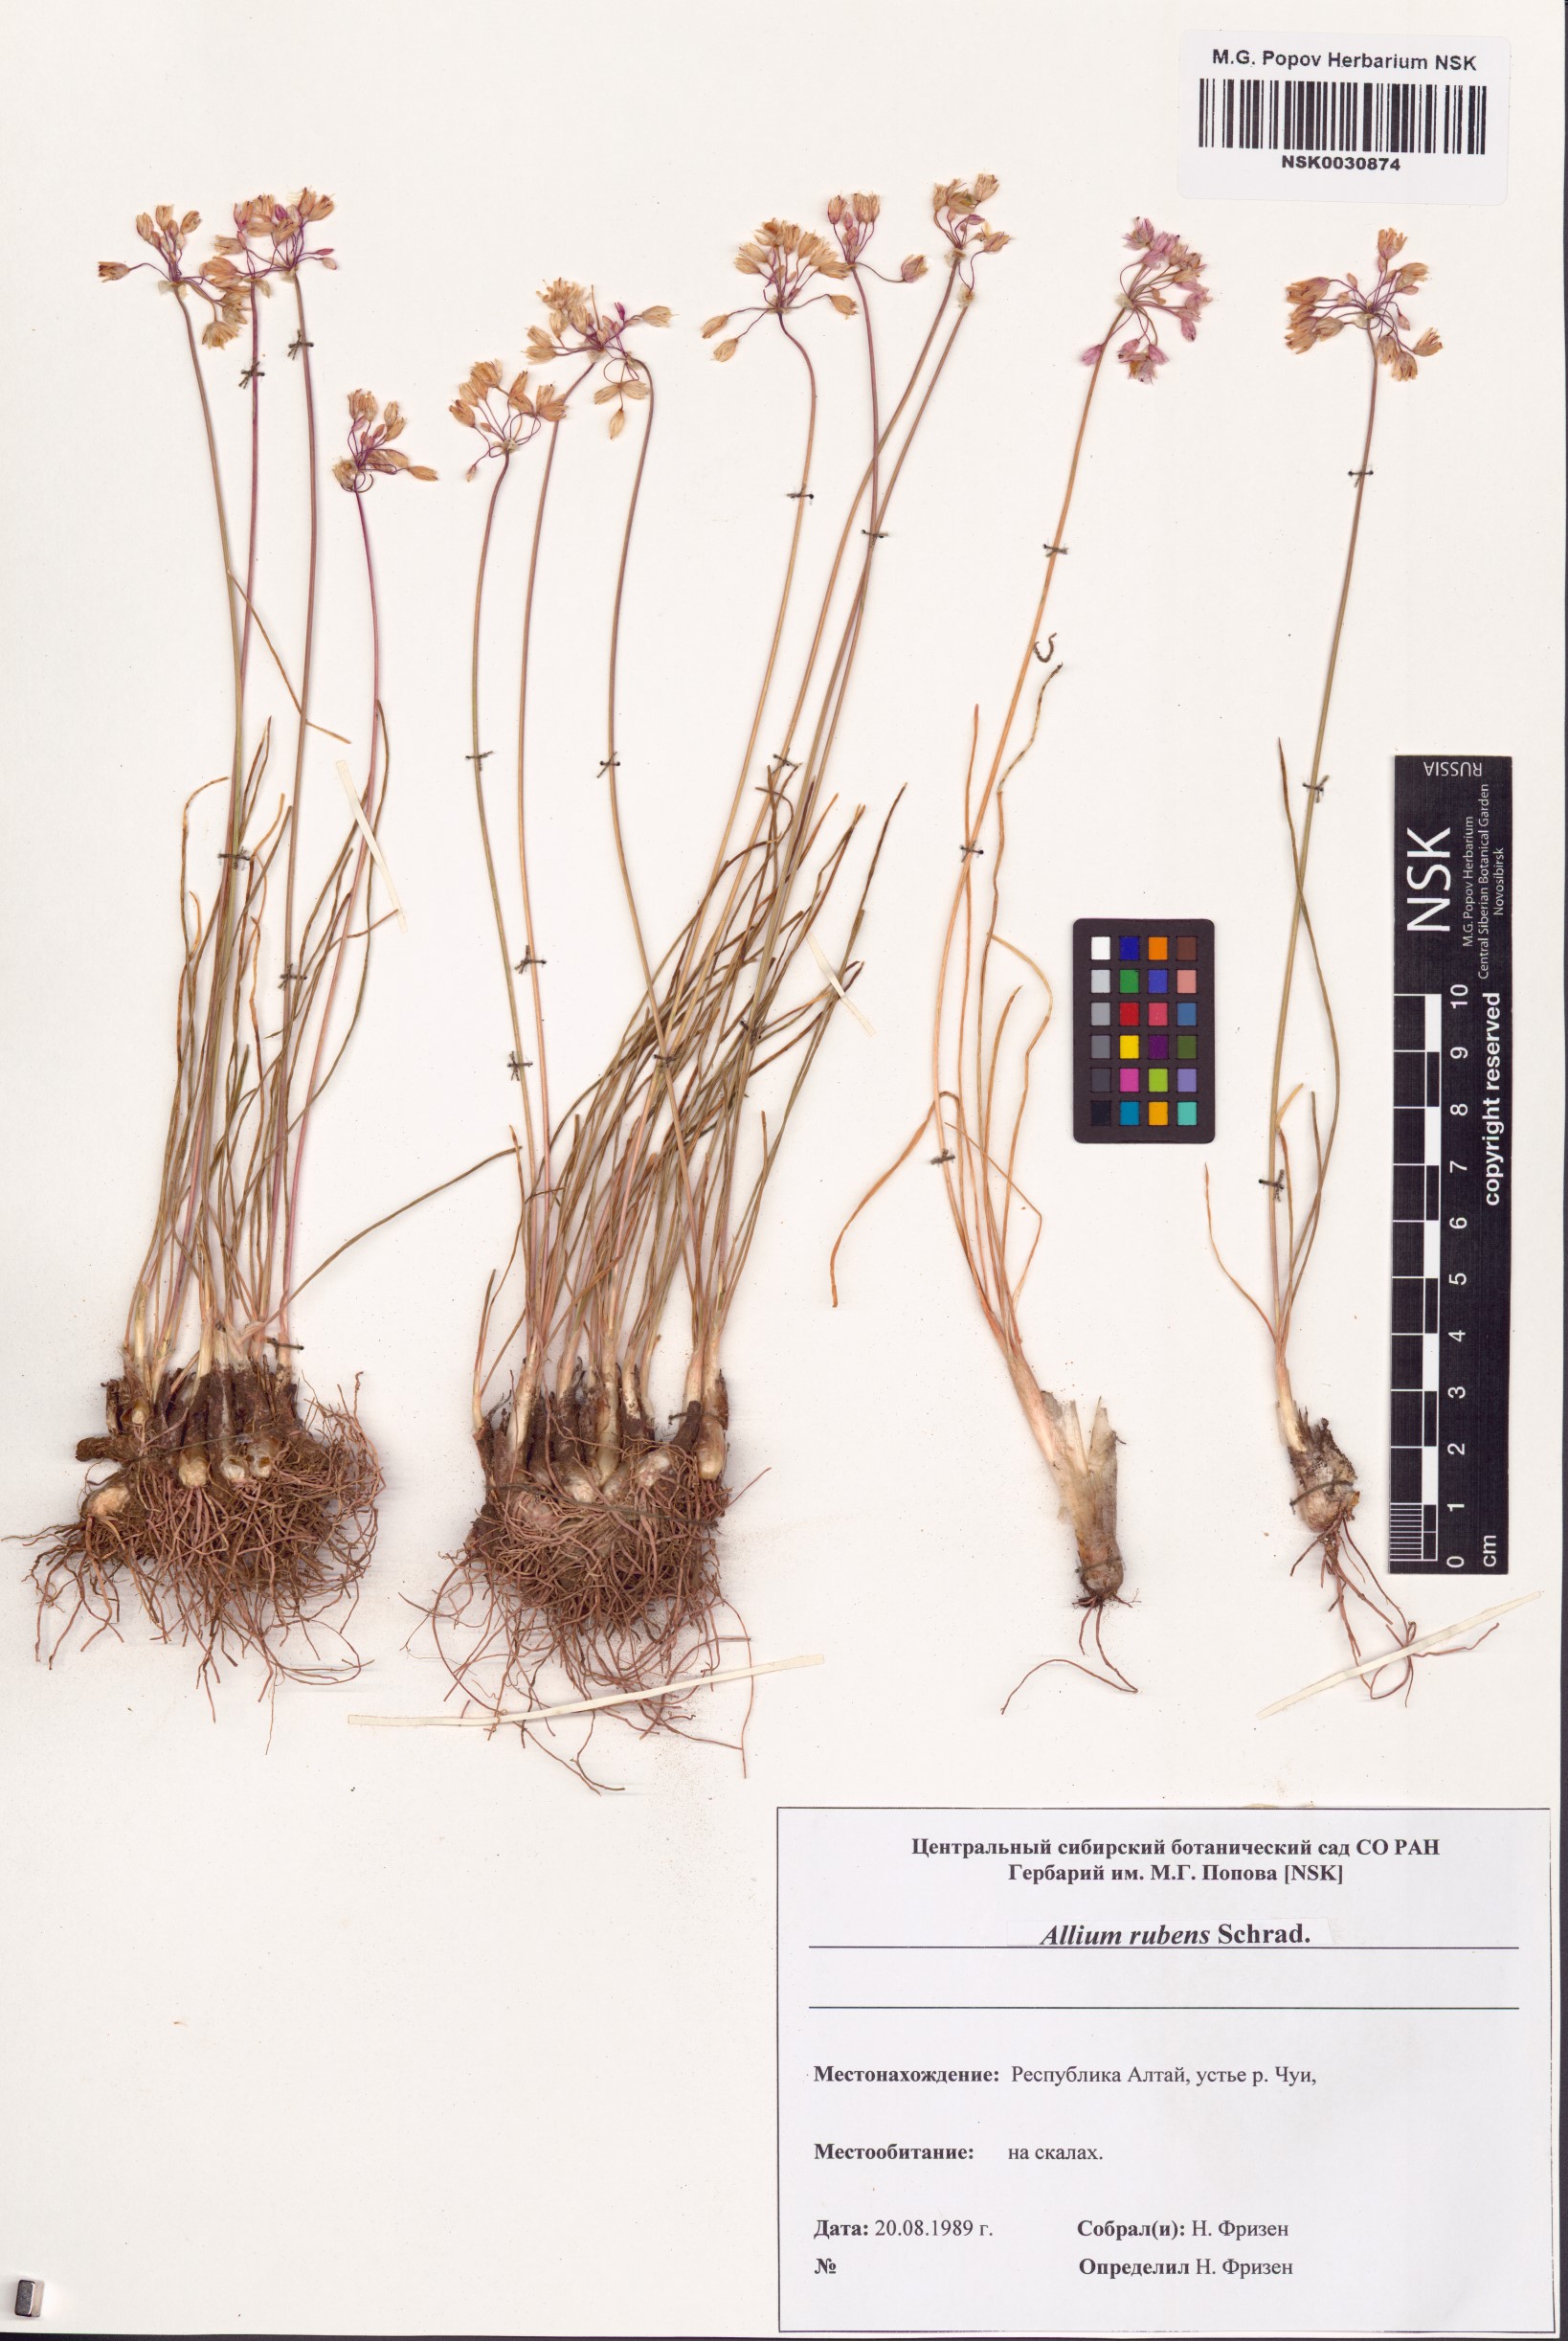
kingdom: Plantae
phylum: Tracheophyta
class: Liliopsida
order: Asparagales
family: Amaryllidaceae
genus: Allium
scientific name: Allium rubens
